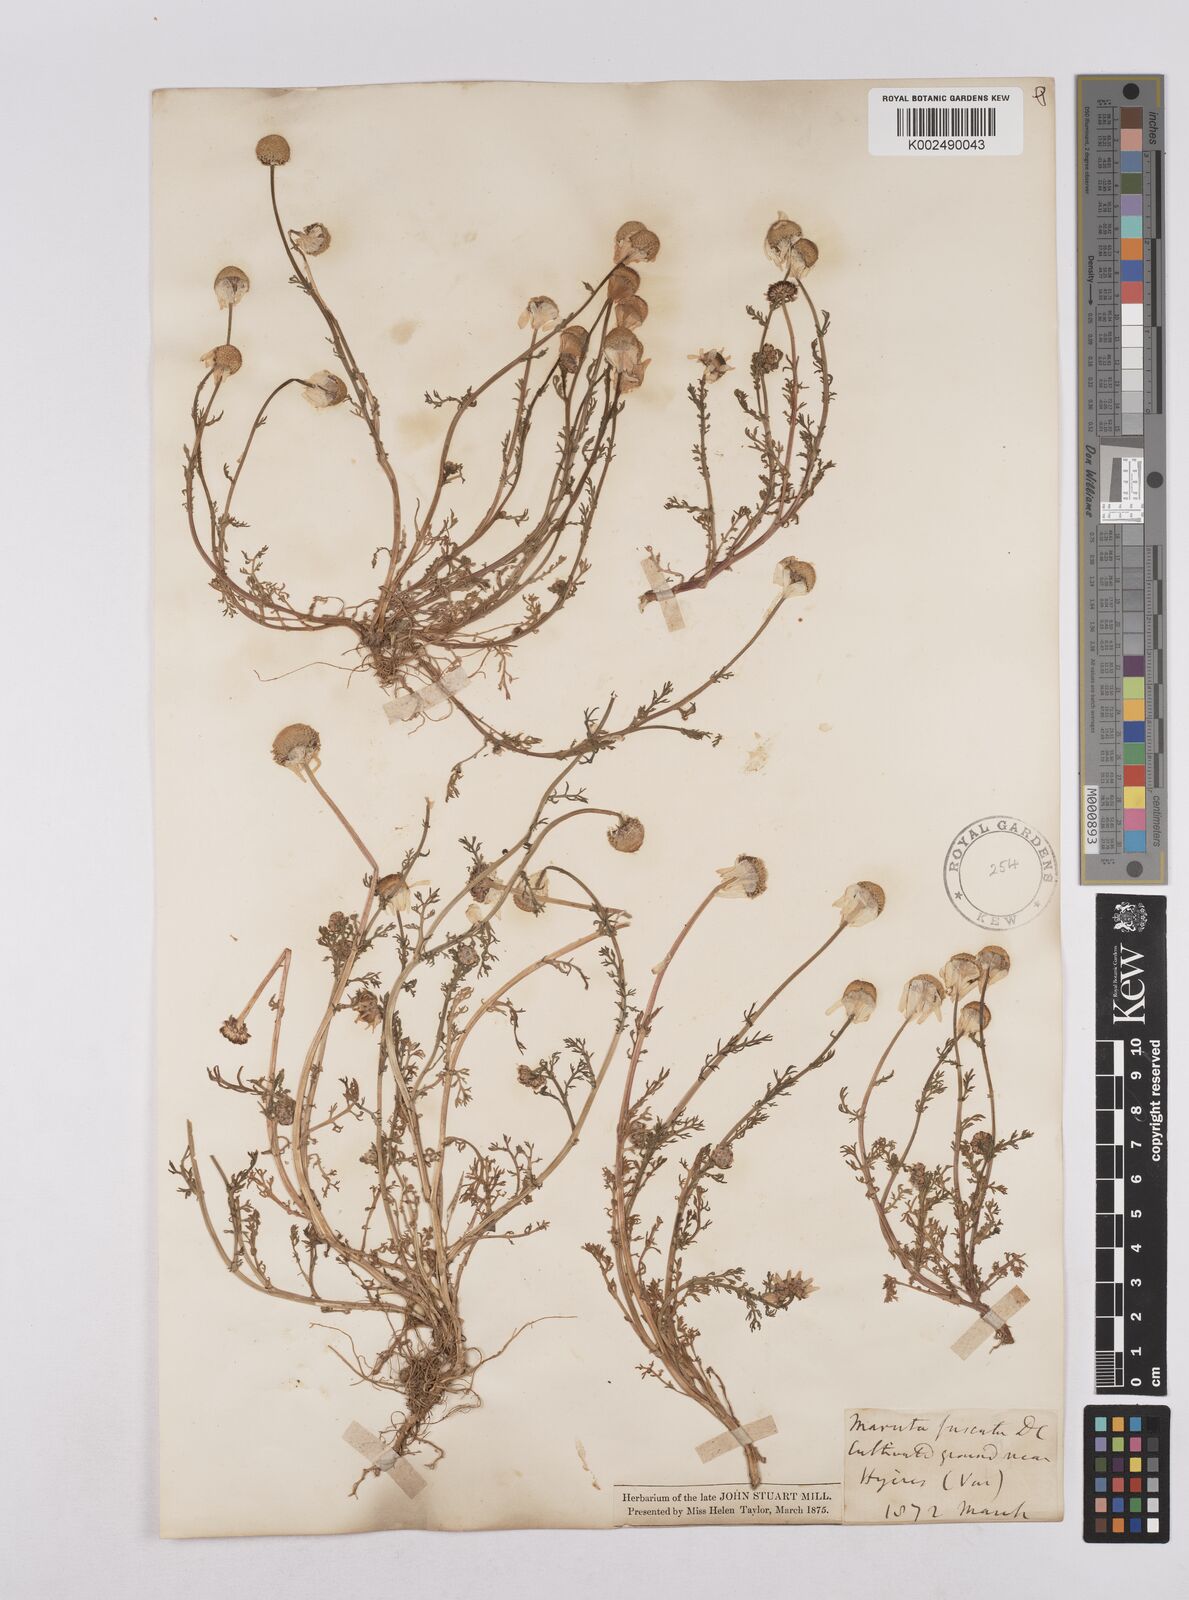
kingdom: Plantae
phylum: Tracheophyta
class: Magnoliopsida
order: Asterales
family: Asteraceae
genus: Chamaemelum
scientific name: Chamaemelum fuscatum
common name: Chamomile
